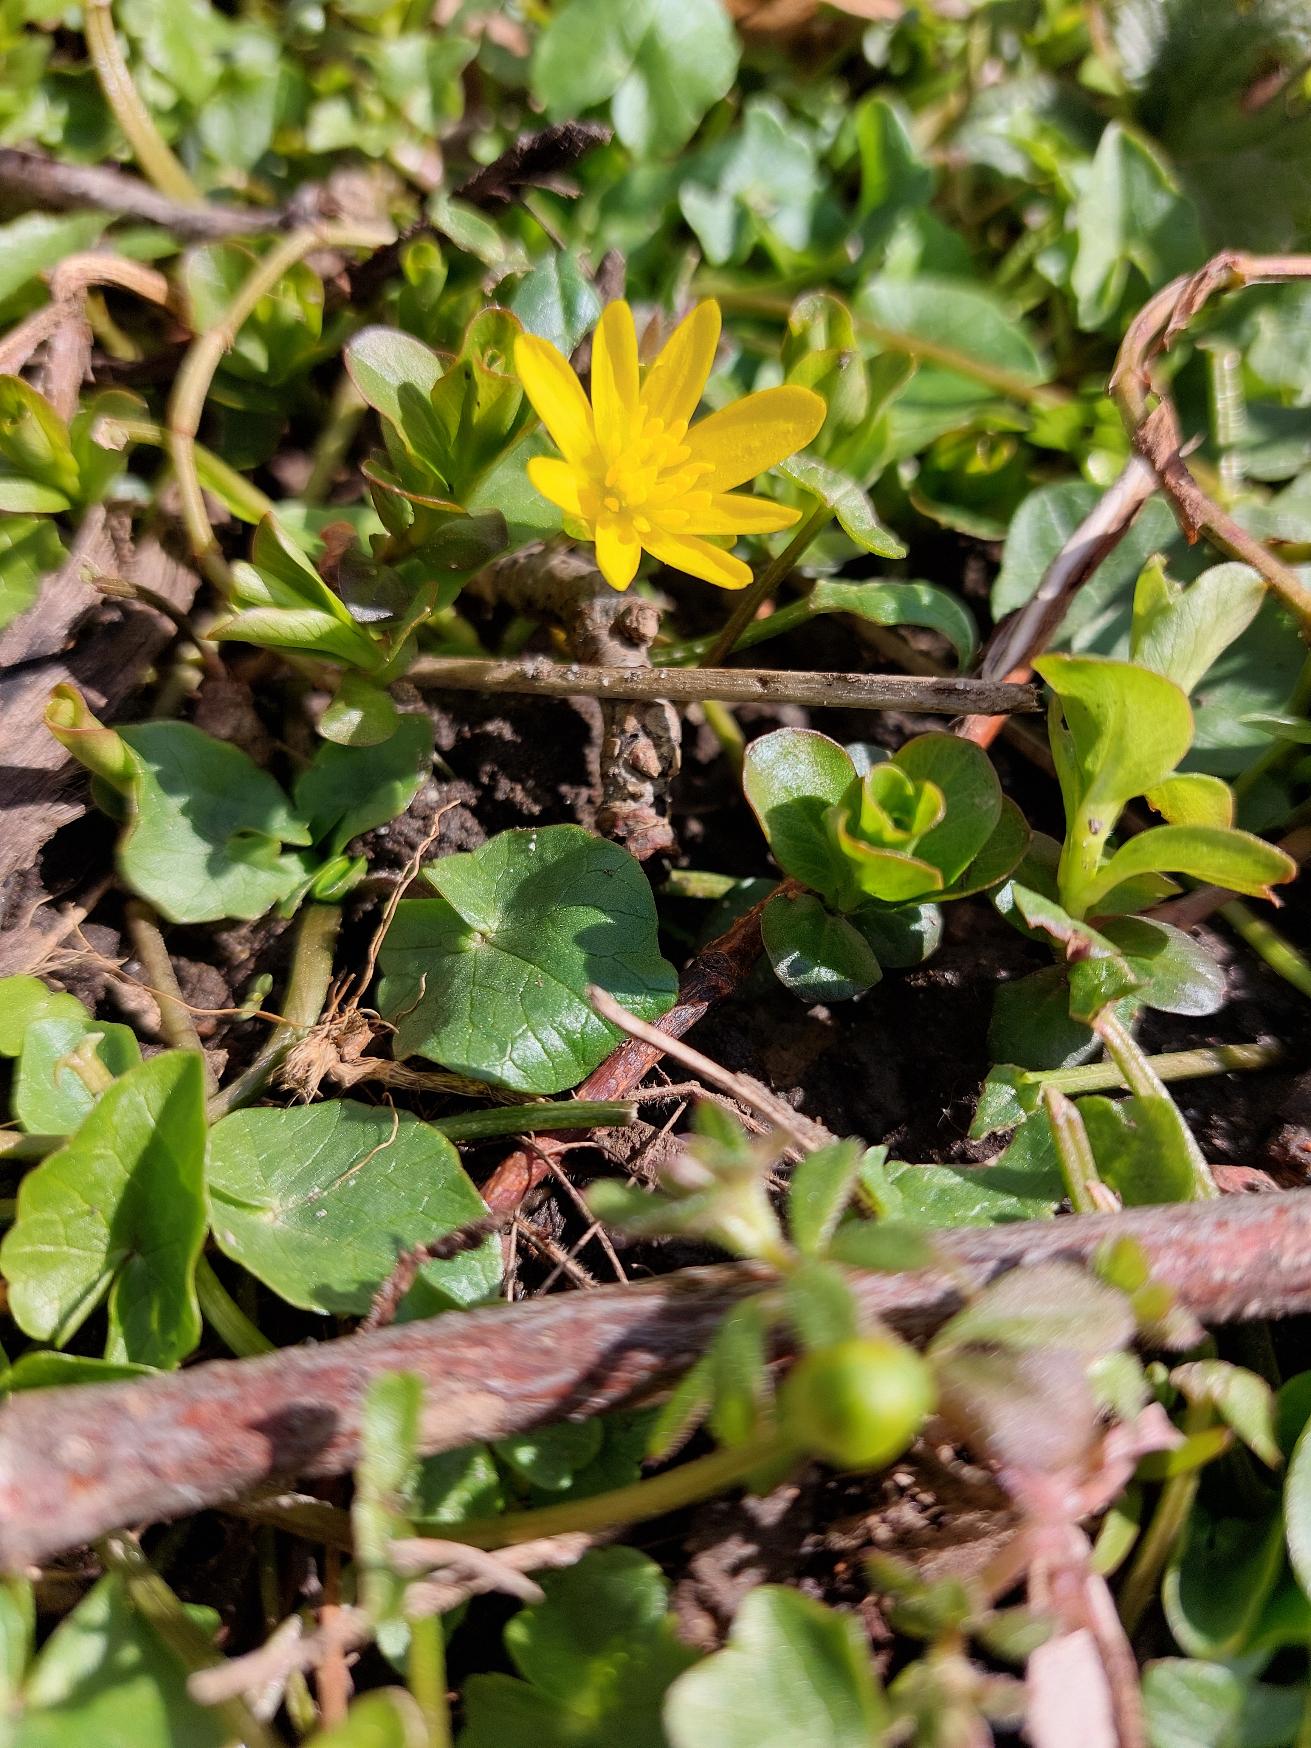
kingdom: Plantae
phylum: Tracheophyta
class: Magnoliopsida
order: Ranunculales
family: Ranunculaceae
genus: Ficaria
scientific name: Ficaria verna
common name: Vorterod
